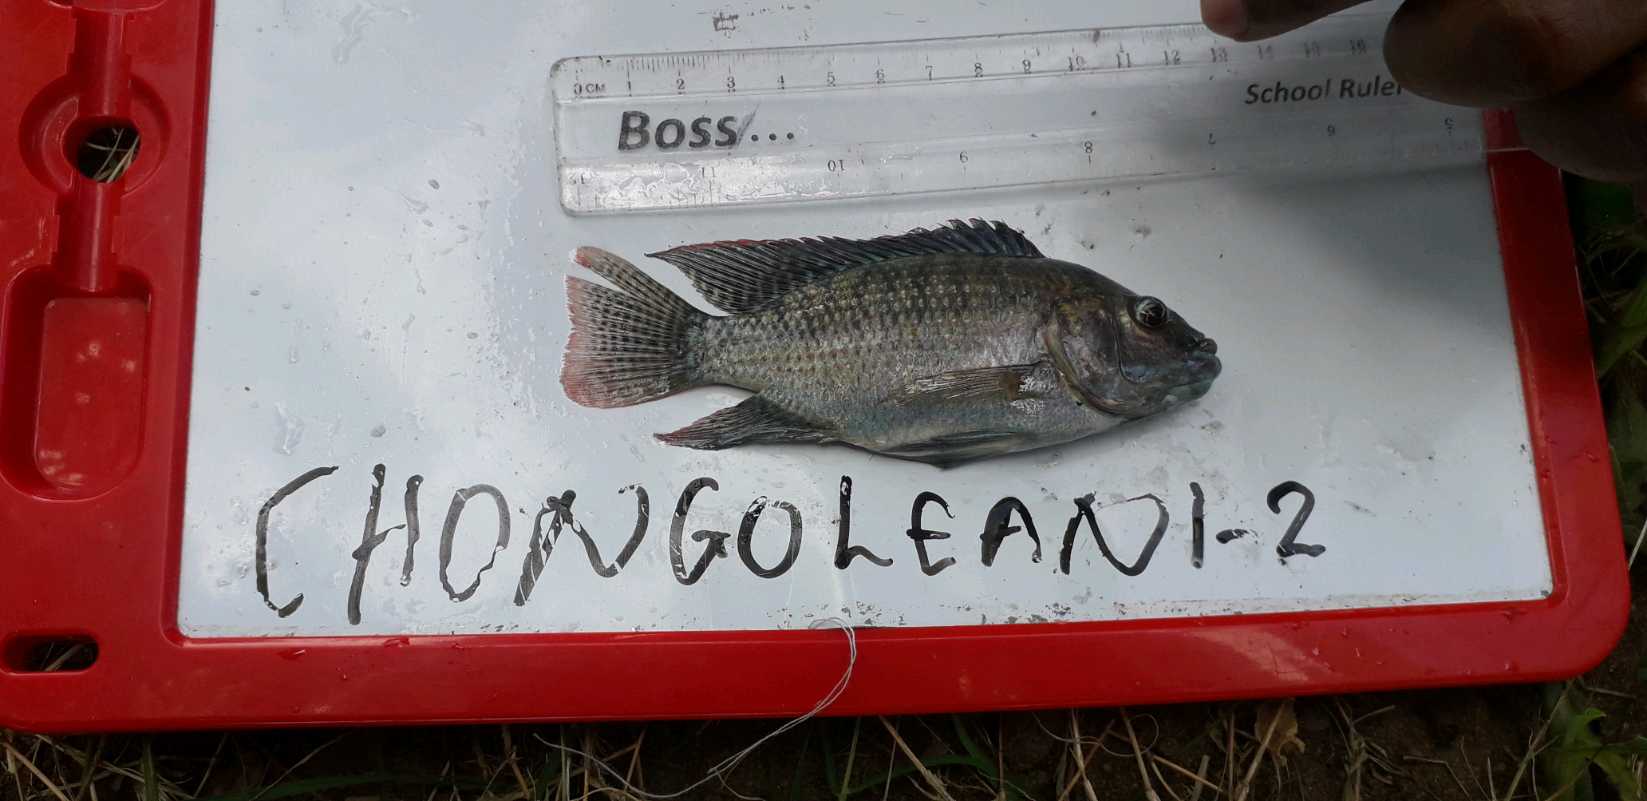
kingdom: Animalia
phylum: Chordata
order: Perciformes
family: Cichlidae
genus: Oreochromis
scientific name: Oreochromis urolepis
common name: Wami tilapia
